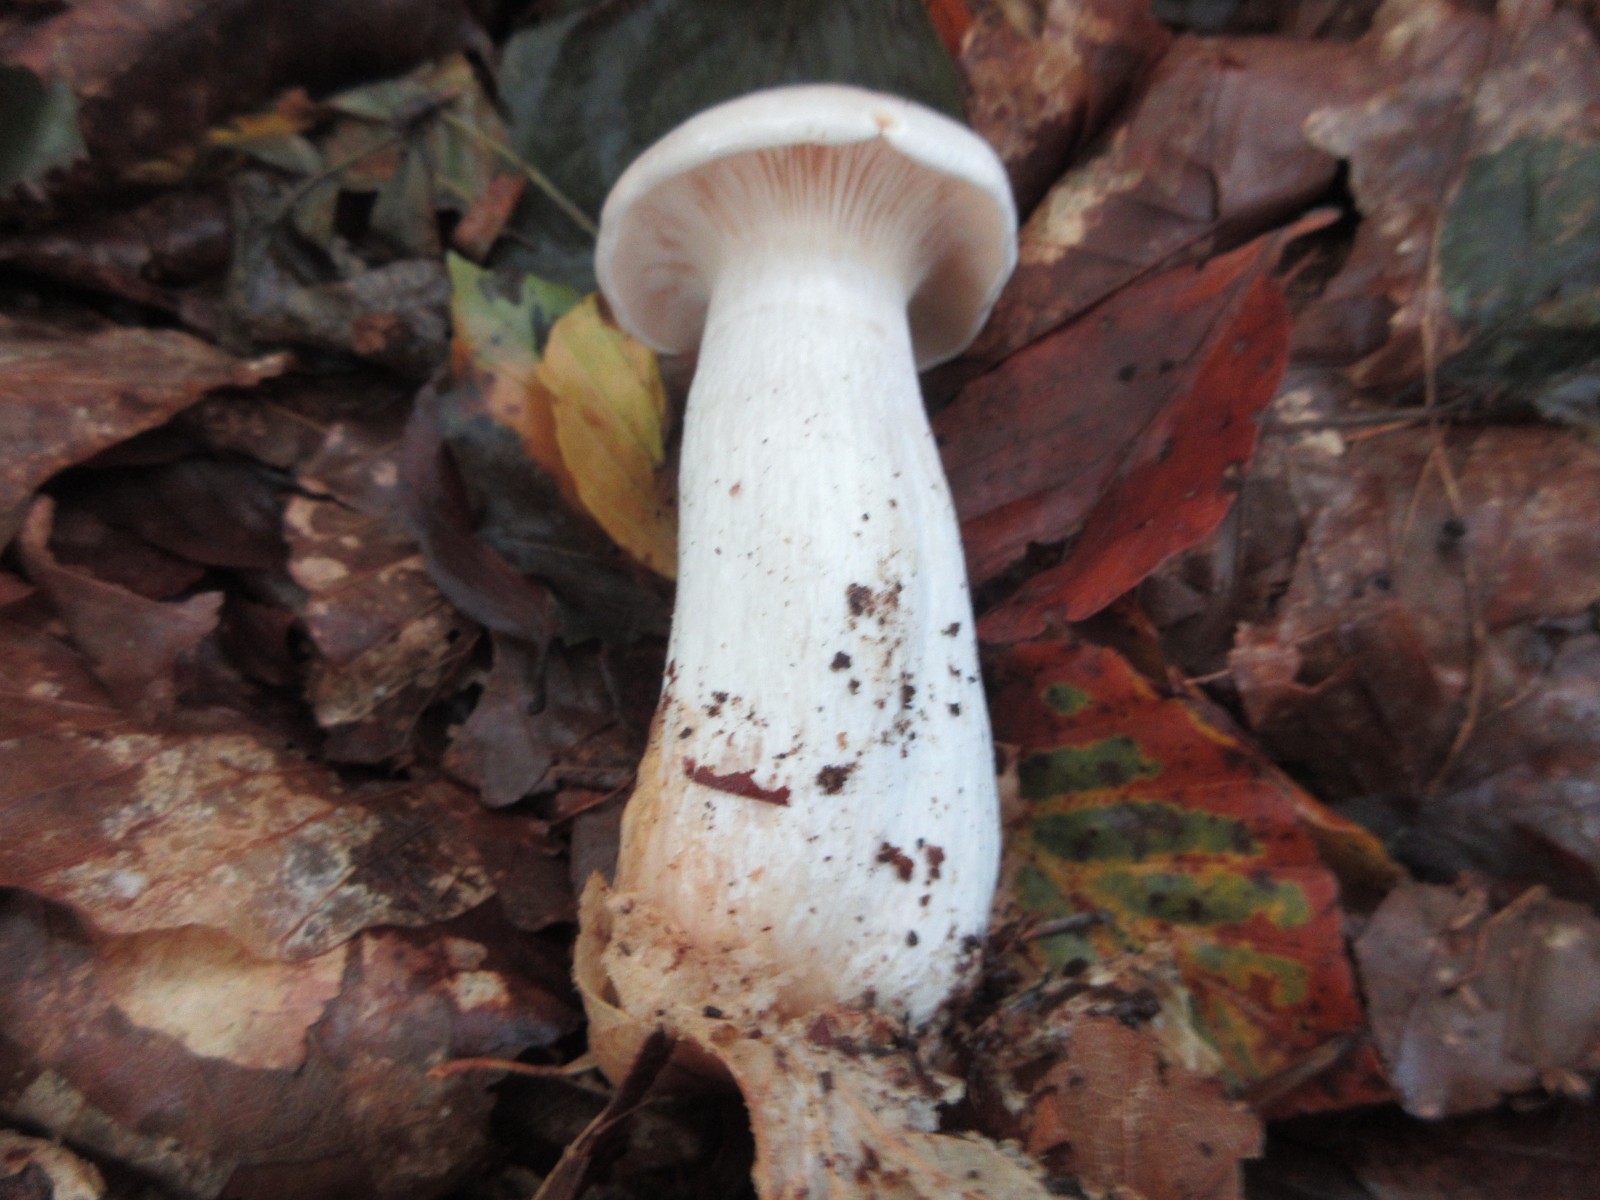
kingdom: Fungi
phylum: Basidiomycota
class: Agaricomycetes
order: Agaricales
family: Tricholomataceae
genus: Clitocybe
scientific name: Clitocybe nebularis
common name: tåge-tragthat
